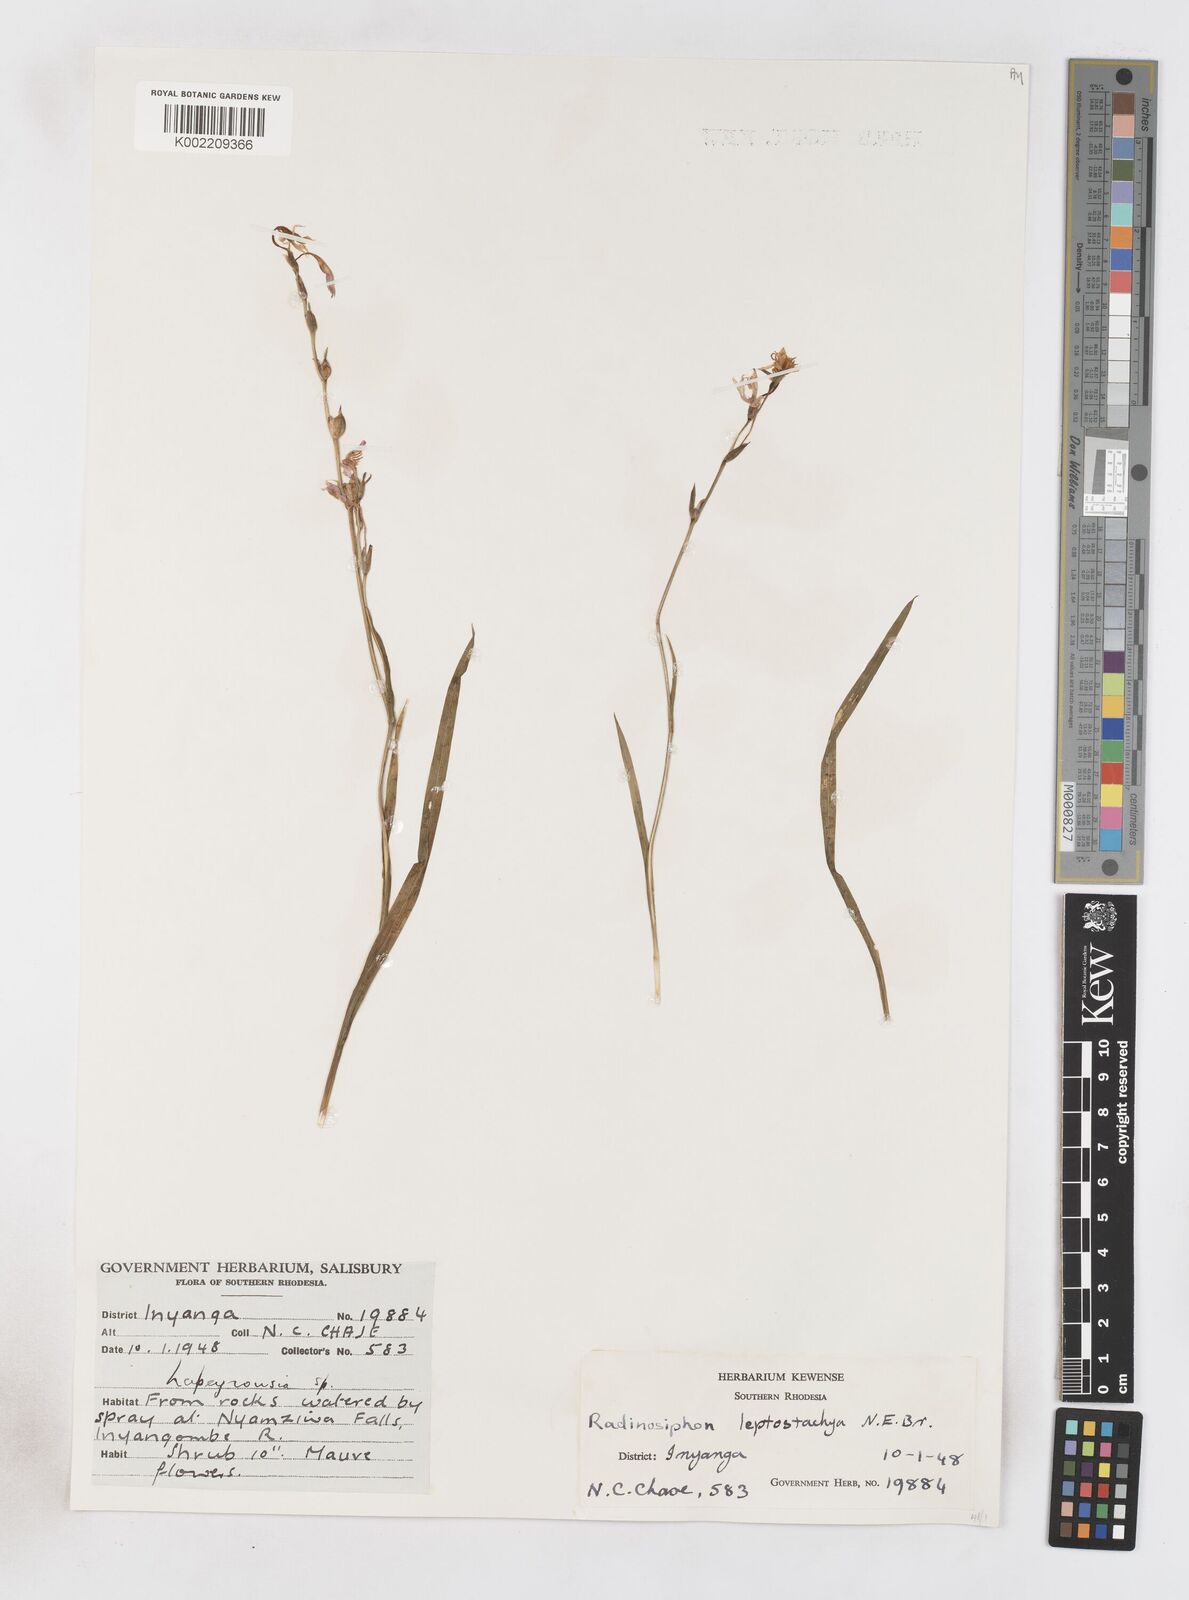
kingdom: Plantae
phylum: Tracheophyta
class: Liliopsida
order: Asparagales
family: Iridaceae
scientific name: Iridaceae
